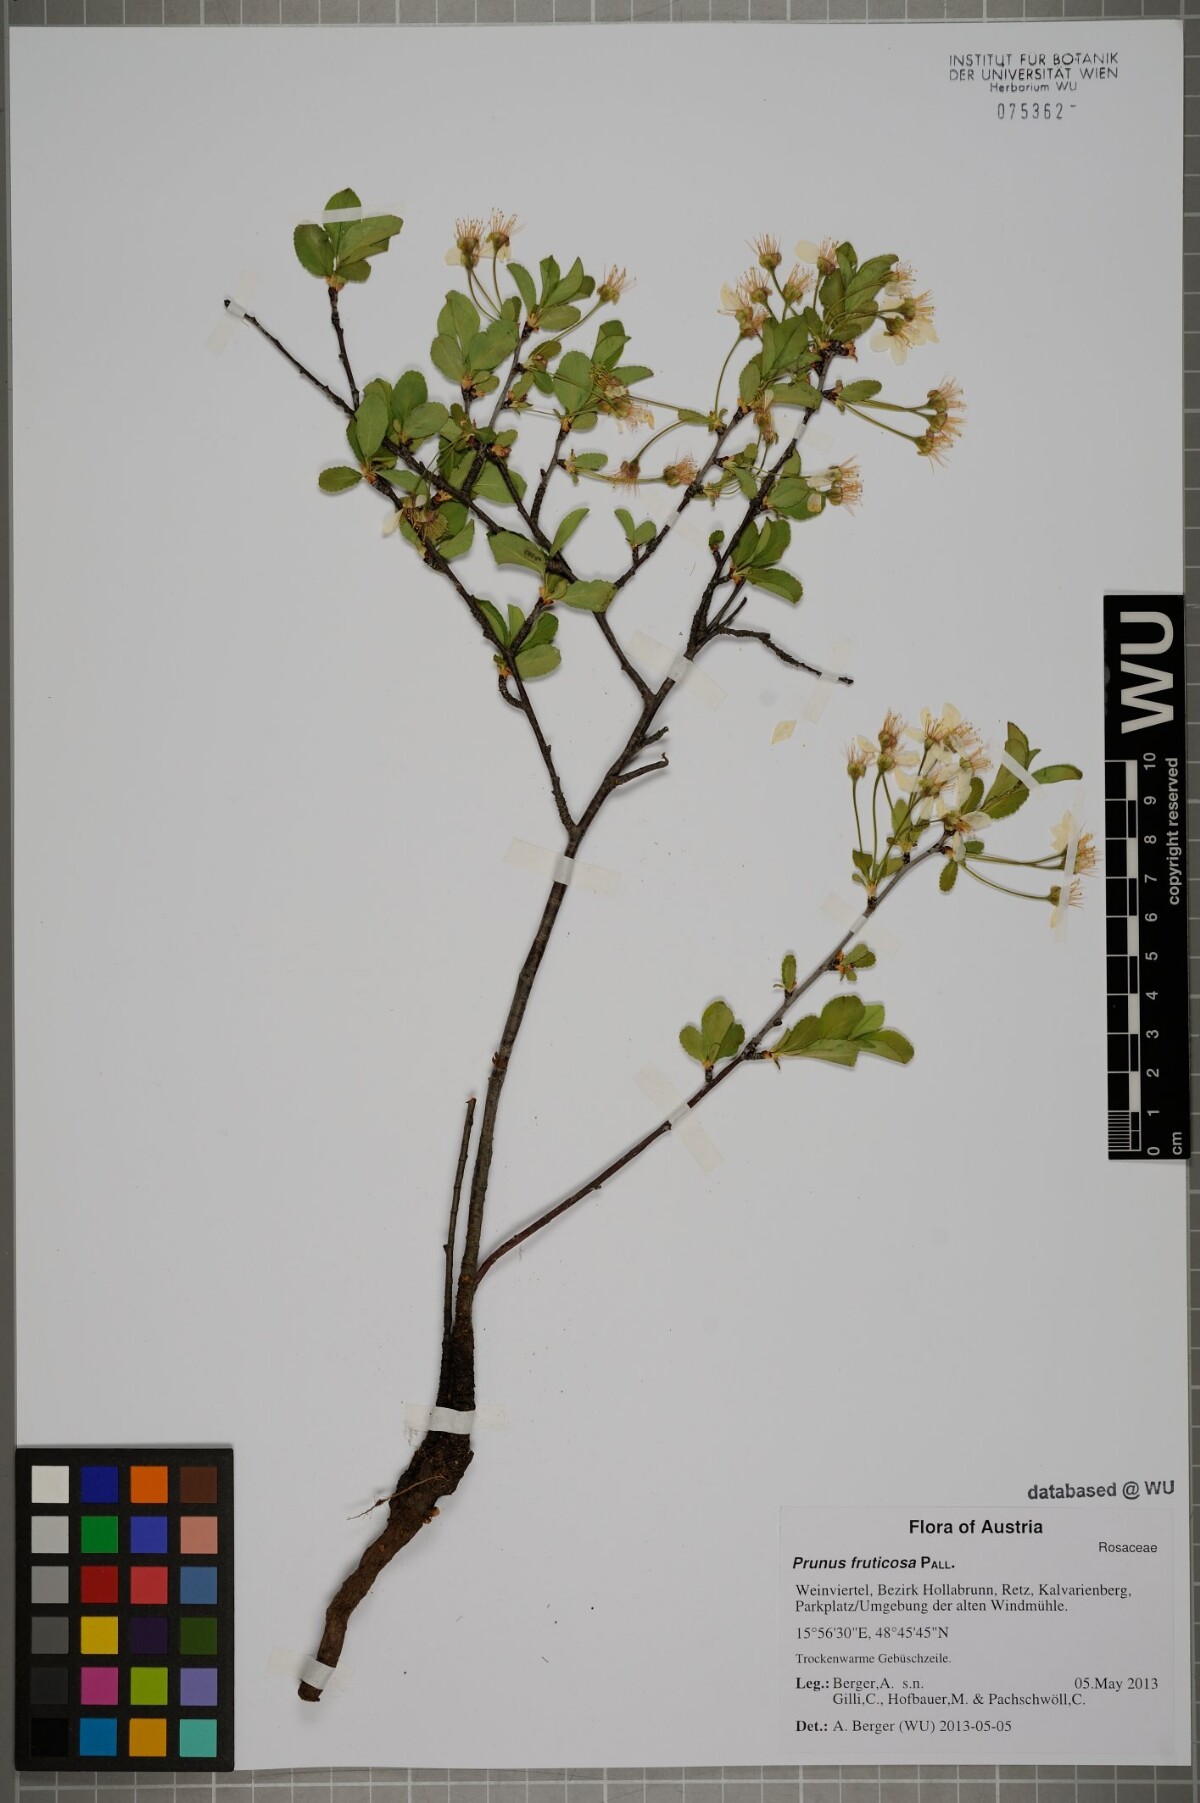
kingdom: Plantae
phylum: Tracheophyta
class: Magnoliopsida
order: Rosales
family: Rosaceae
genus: Prunus
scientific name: Prunus fruticosa
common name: European dwarf cherry
